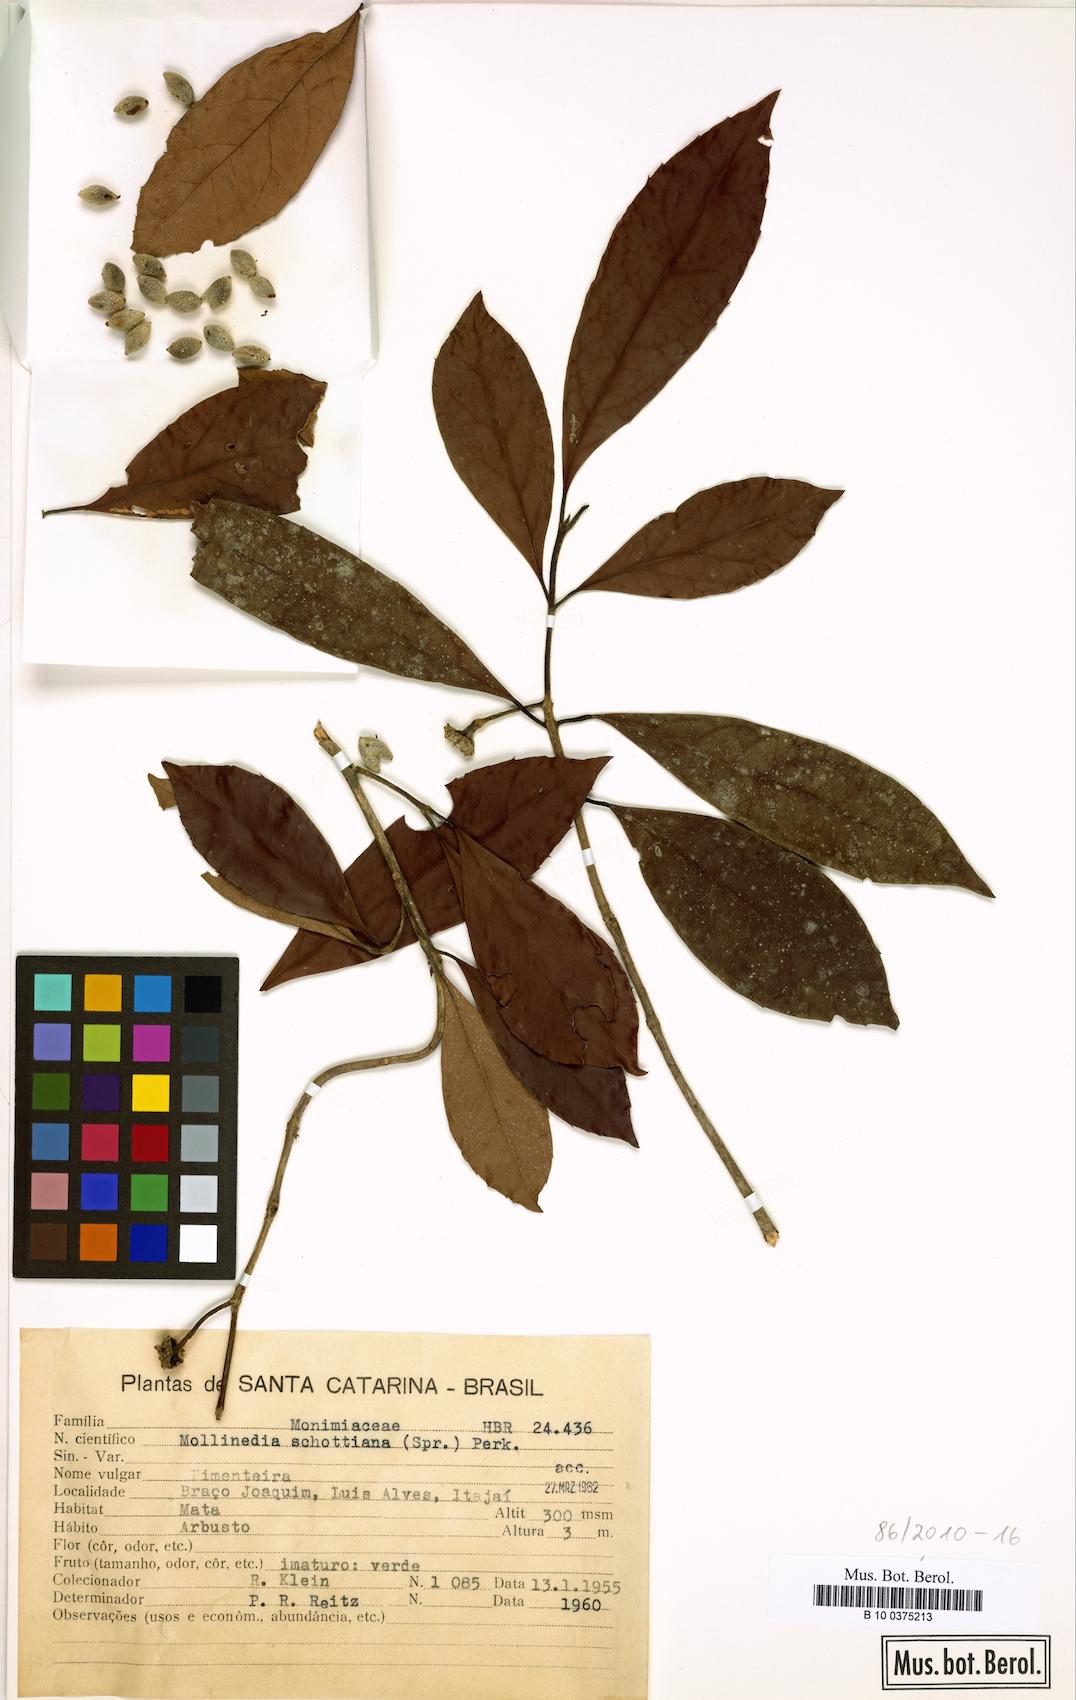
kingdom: Plantae
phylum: Tracheophyta
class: Magnoliopsida
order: Laurales
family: Monimiaceae
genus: Mollinedia
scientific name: Mollinedia leucantha
